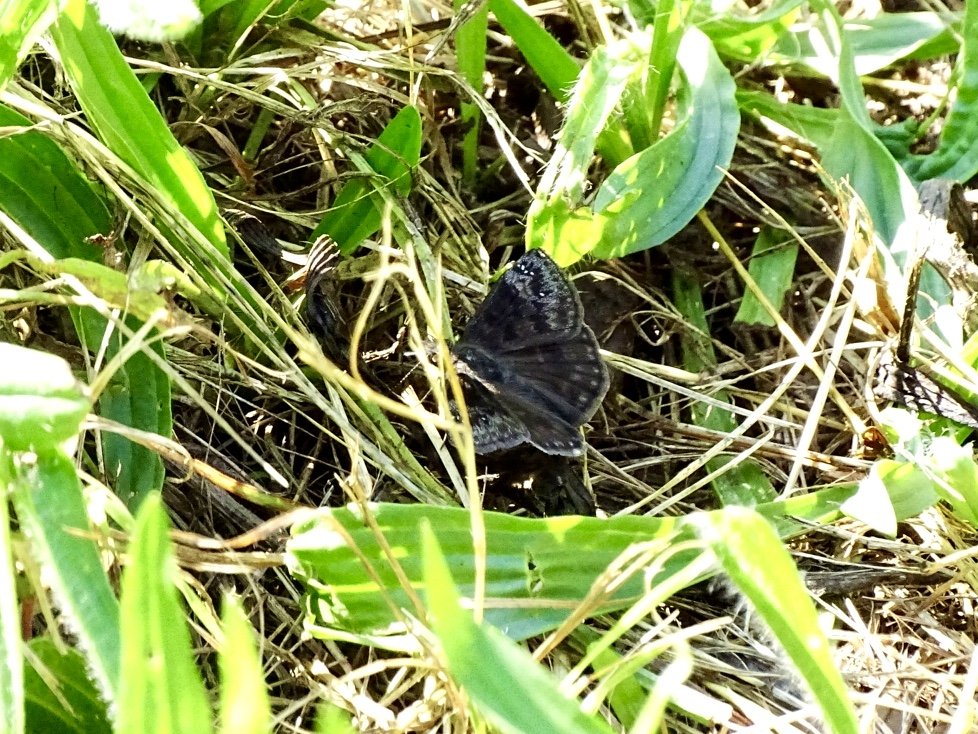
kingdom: Animalia
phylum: Arthropoda
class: Insecta
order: Lepidoptera
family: Hesperiidae
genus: Gesta
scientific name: Gesta
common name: Wild Indigo Duskywing
